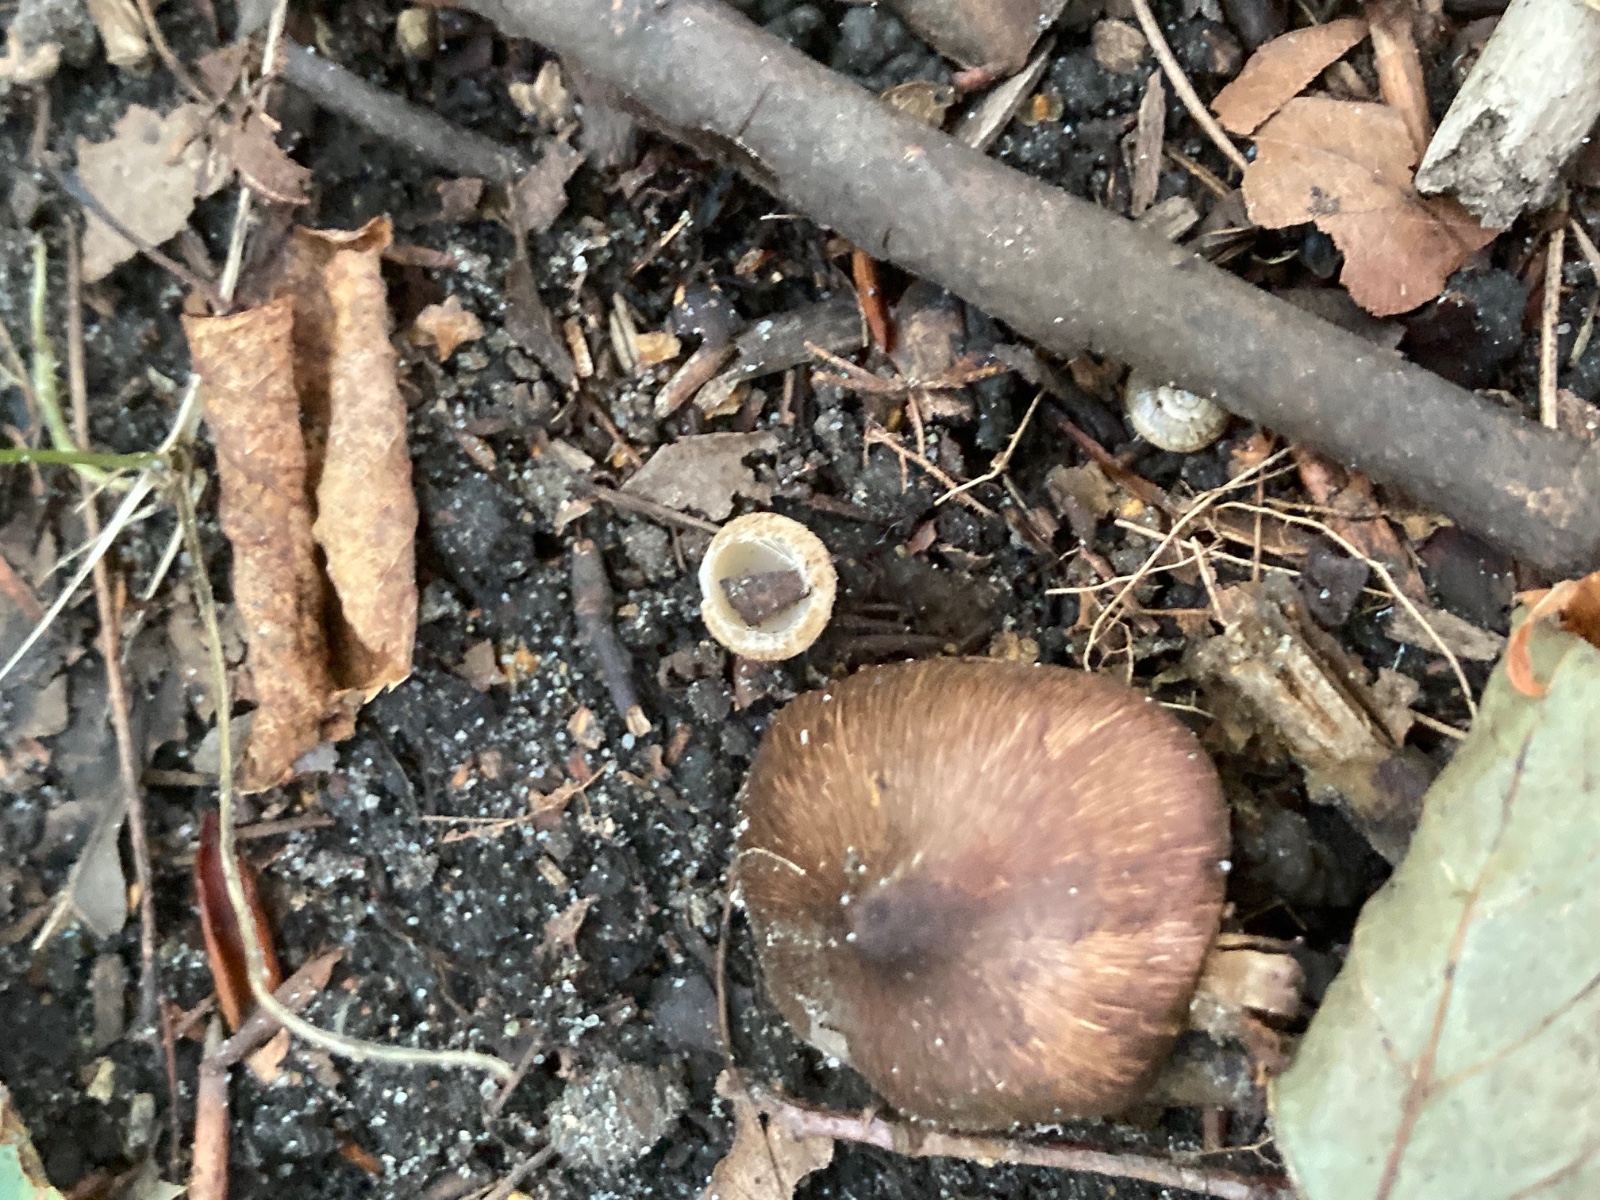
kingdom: Fungi
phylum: Ascomycota
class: Pezizomycetes
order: Pezizales
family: Pyronemataceae
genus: Tarzetta
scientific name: Tarzetta cupularis
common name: gulbrun pokalbæger
